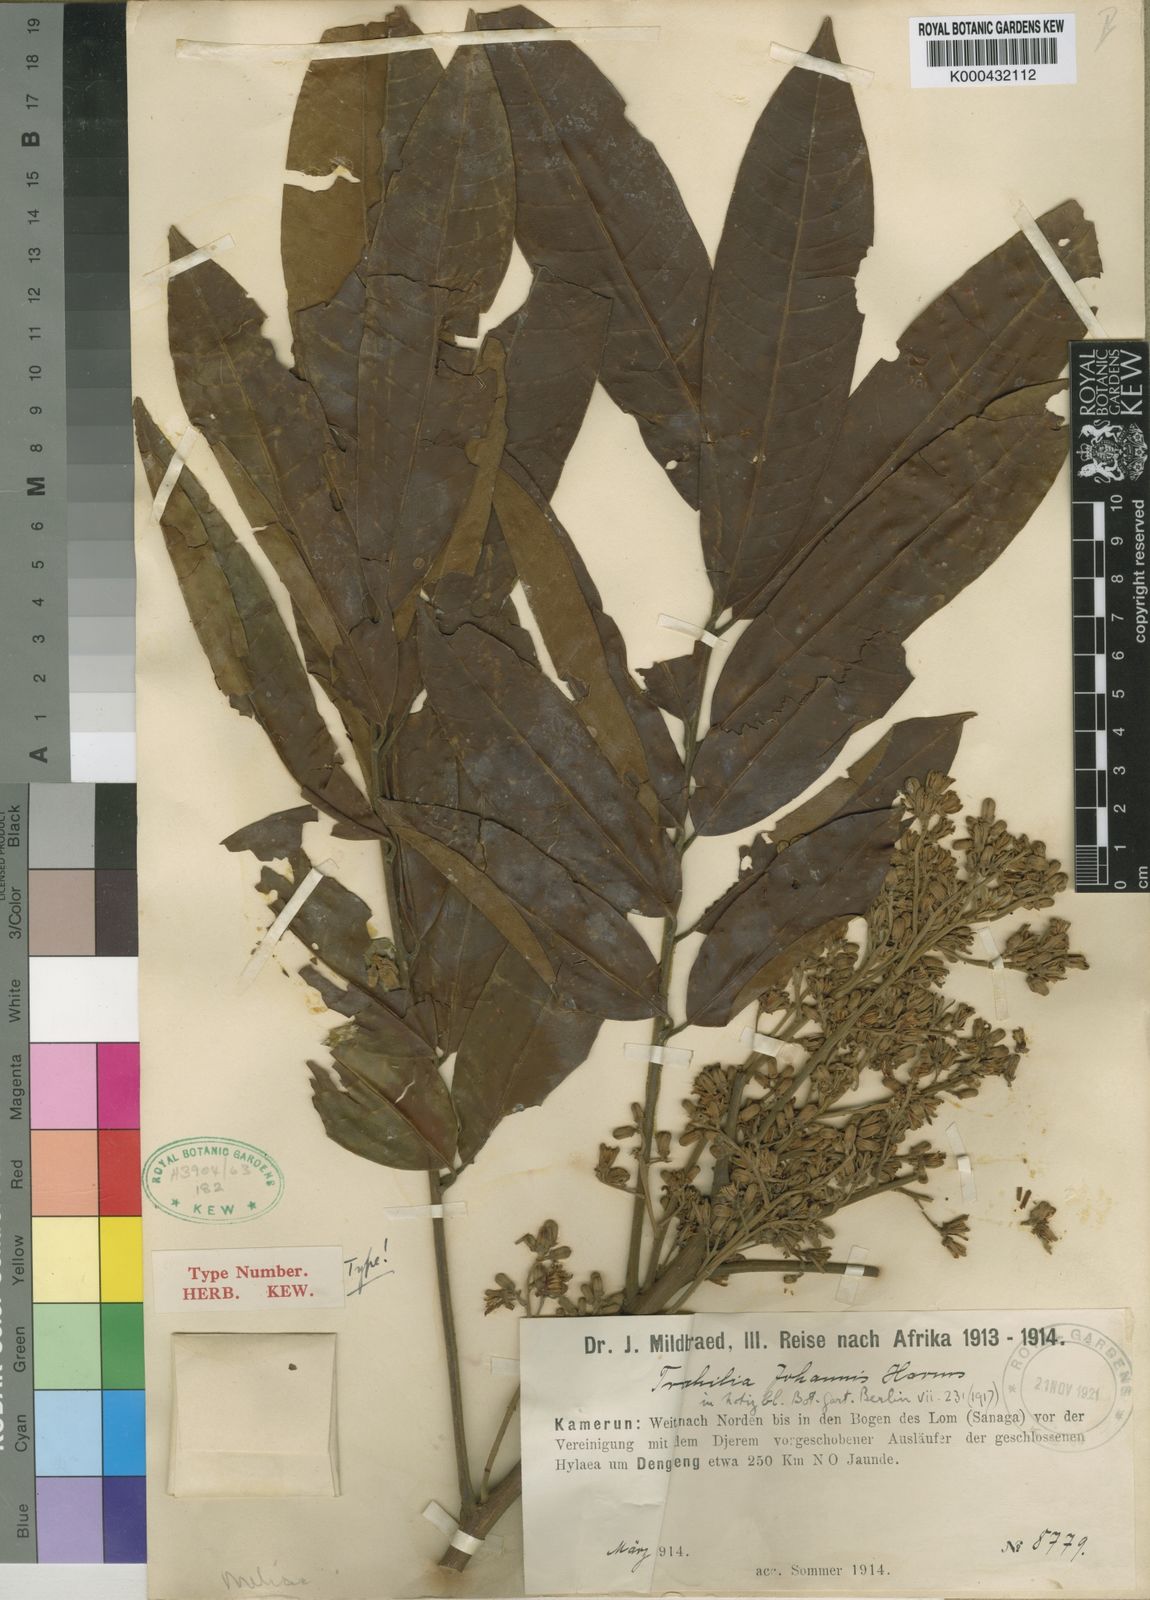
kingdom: Plantae
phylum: Tracheophyta
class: Magnoliopsida
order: Sapindales
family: Meliaceae
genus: Trichilia
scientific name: Trichilia monadelpha
